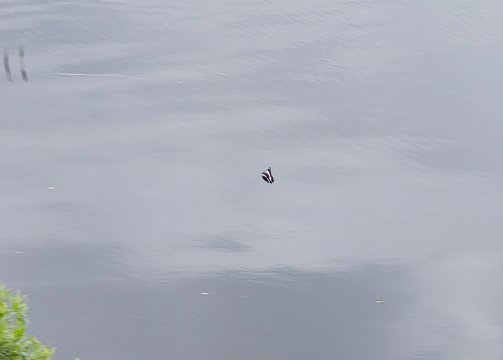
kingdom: Animalia
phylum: Arthropoda
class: Insecta
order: Lepidoptera
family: Nymphalidae
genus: Limenitis
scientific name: Limenitis arthemis
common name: Red-spotted Admiral
